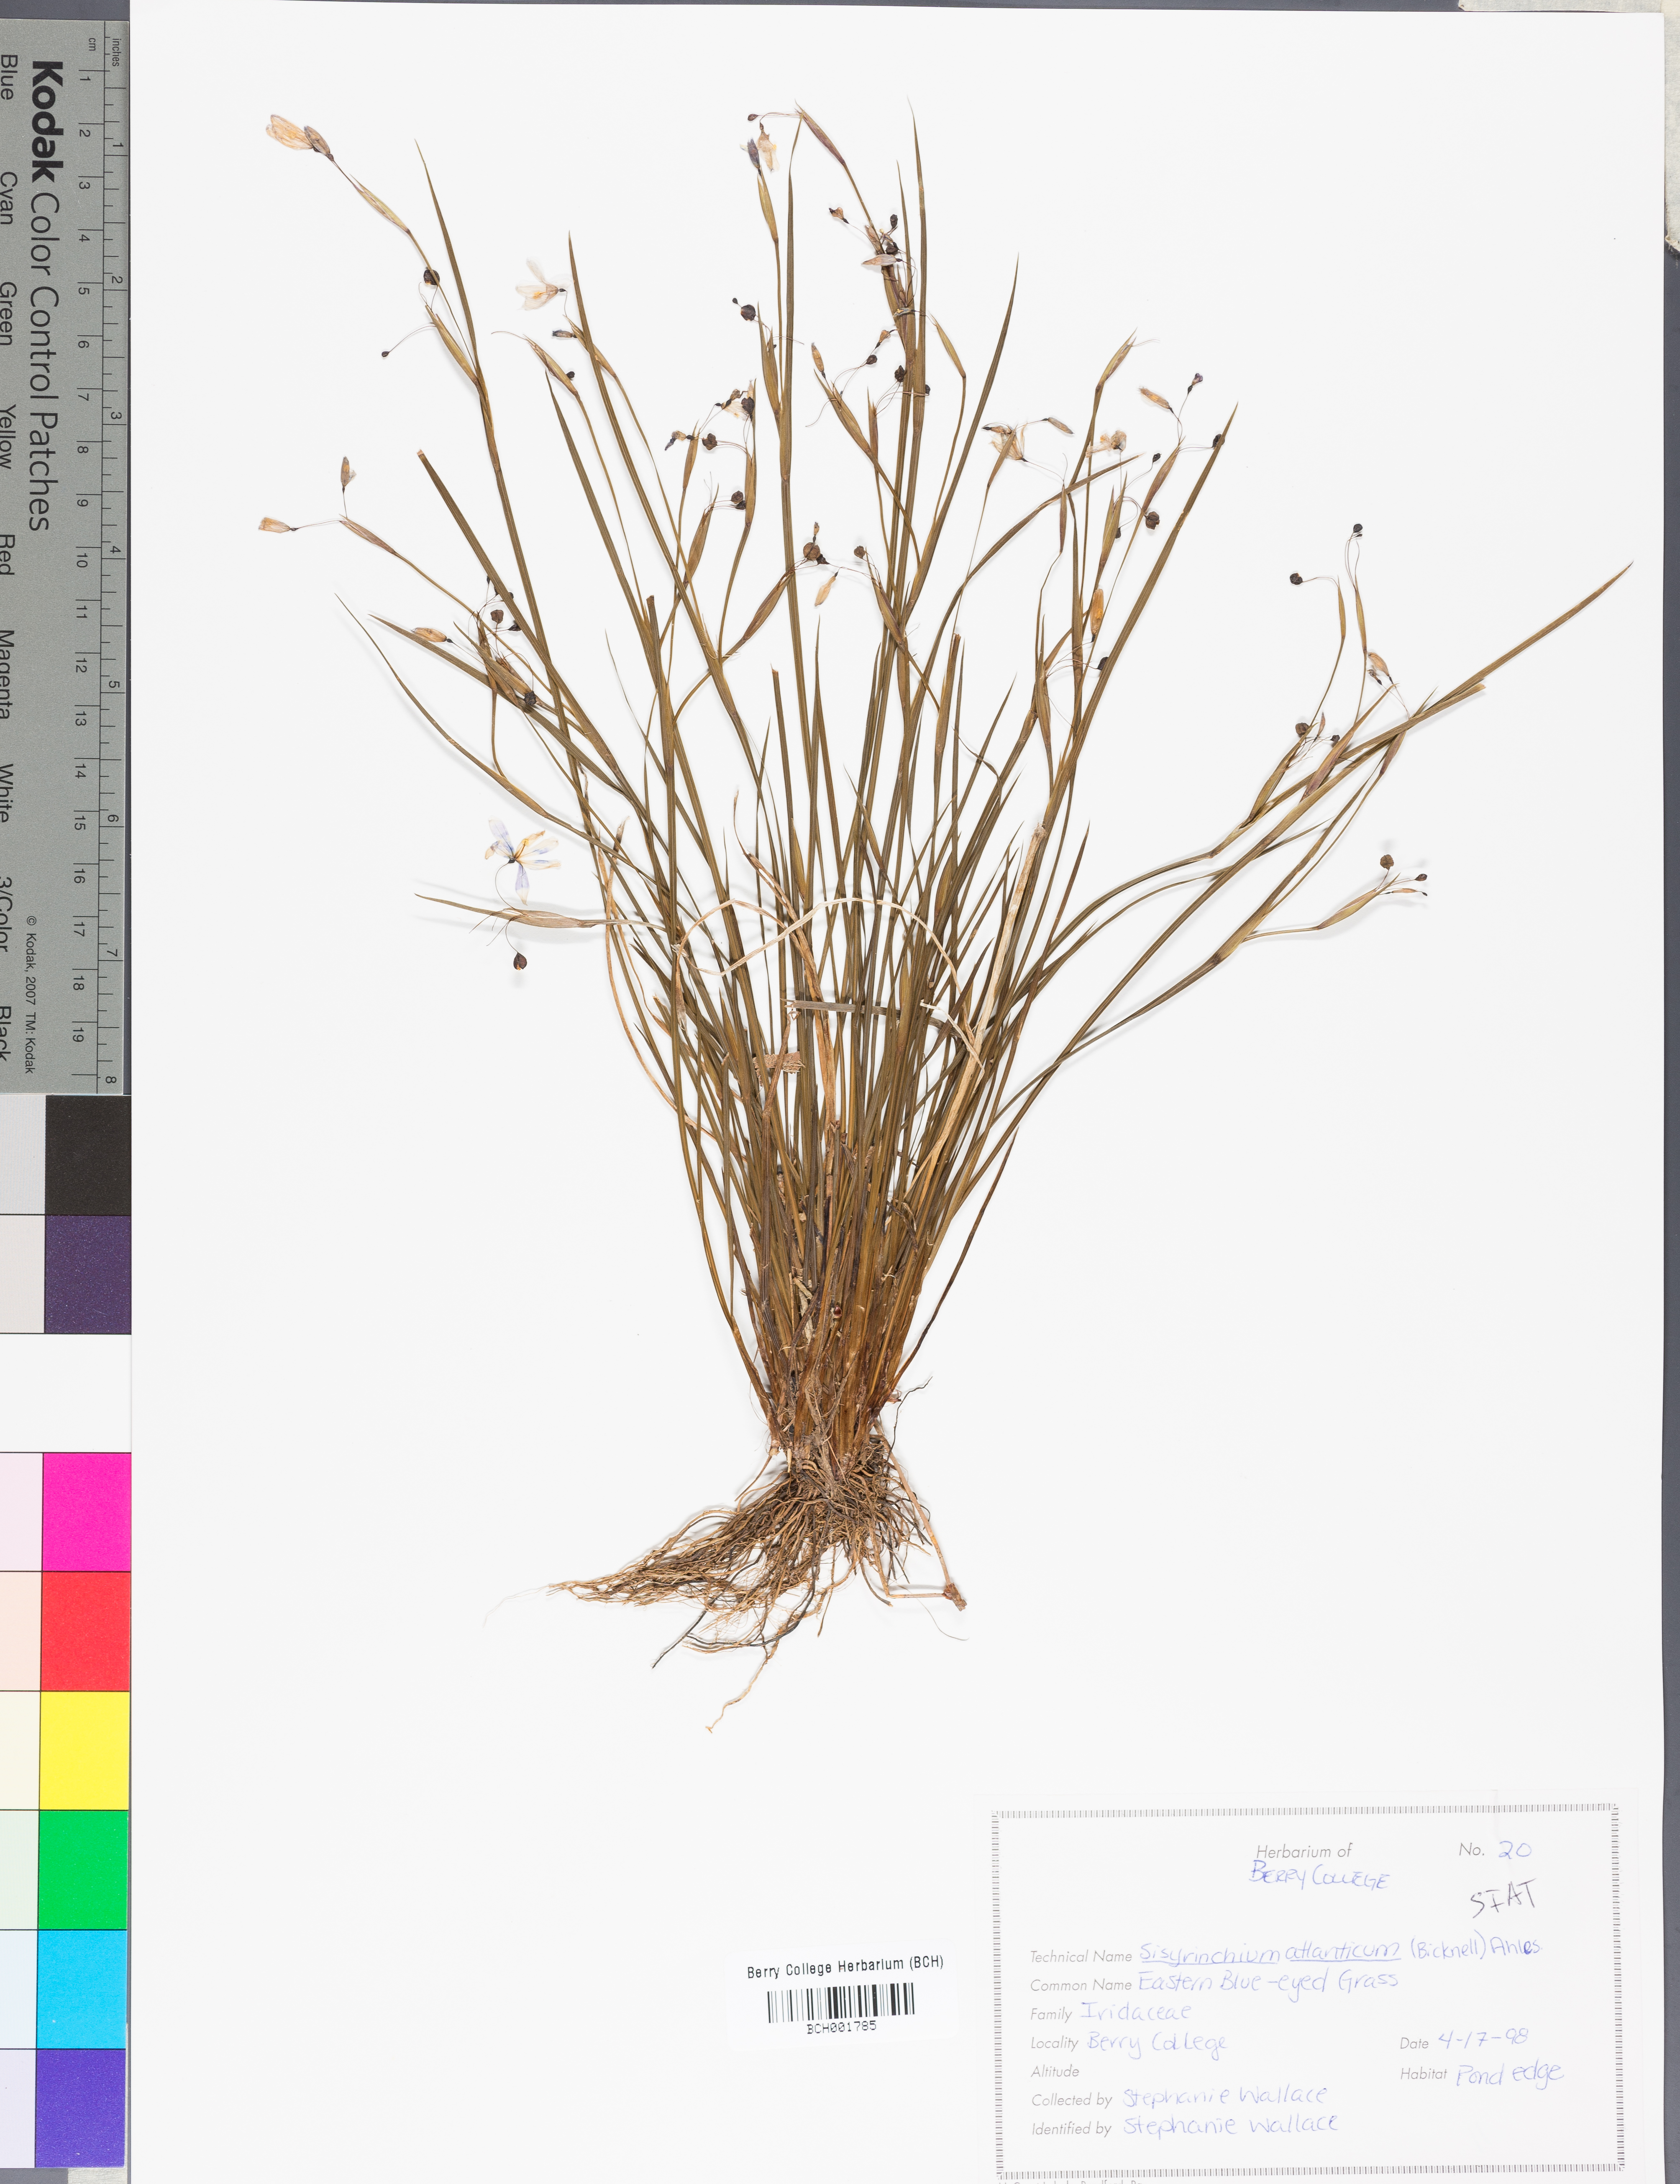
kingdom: Plantae
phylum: Tracheophyta
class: Liliopsida
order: Asparagales
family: Iridaceae
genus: Sisyrinchium
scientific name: Sisyrinchium atlanticum
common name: Eastern blue-eyed-grass
